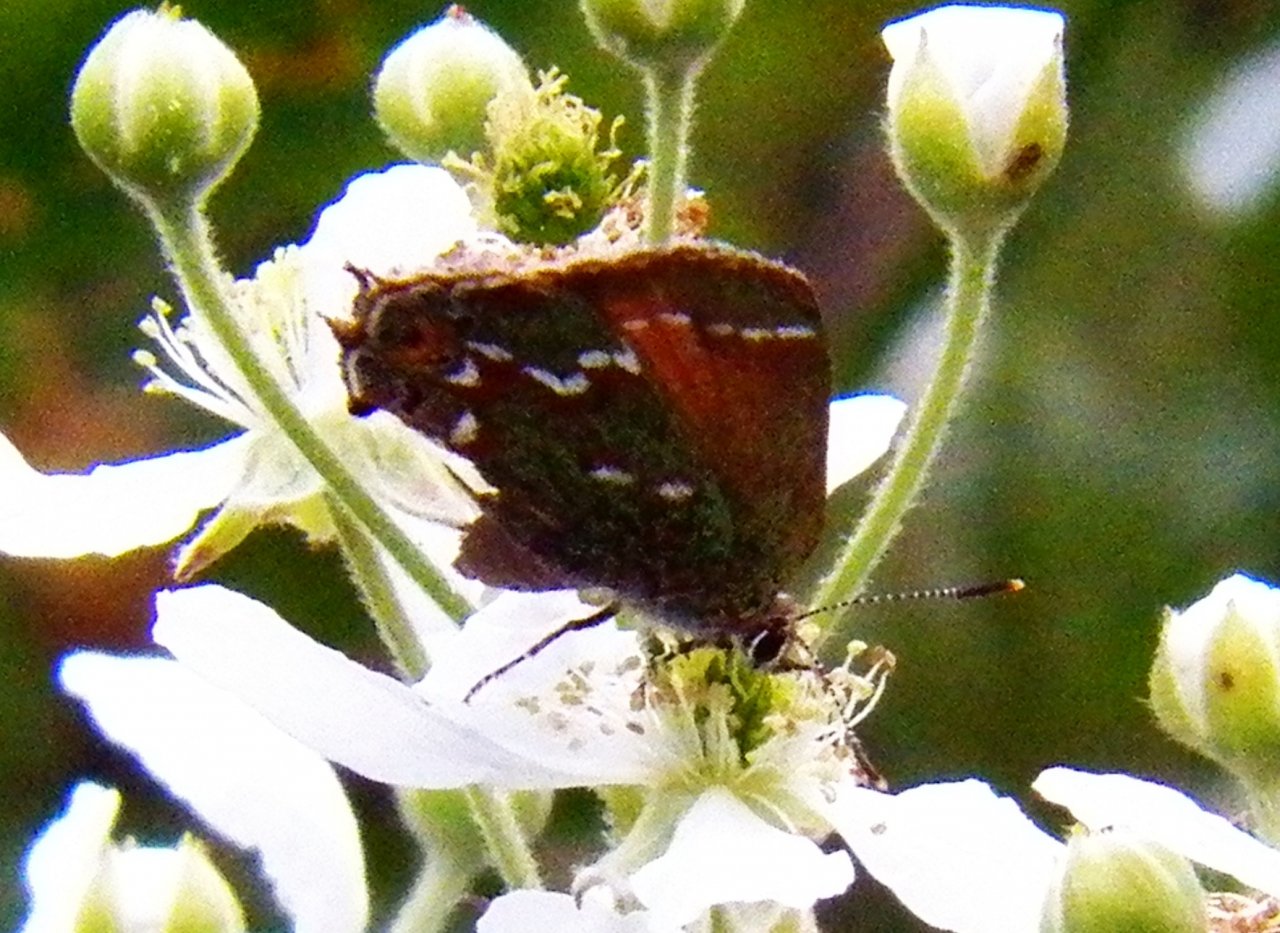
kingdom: Animalia
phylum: Arthropoda
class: Insecta
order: Lepidoptera
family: Lycaenidae
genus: Mitoura
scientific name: Mitoura gryneus
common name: Juniper Hairstreak
